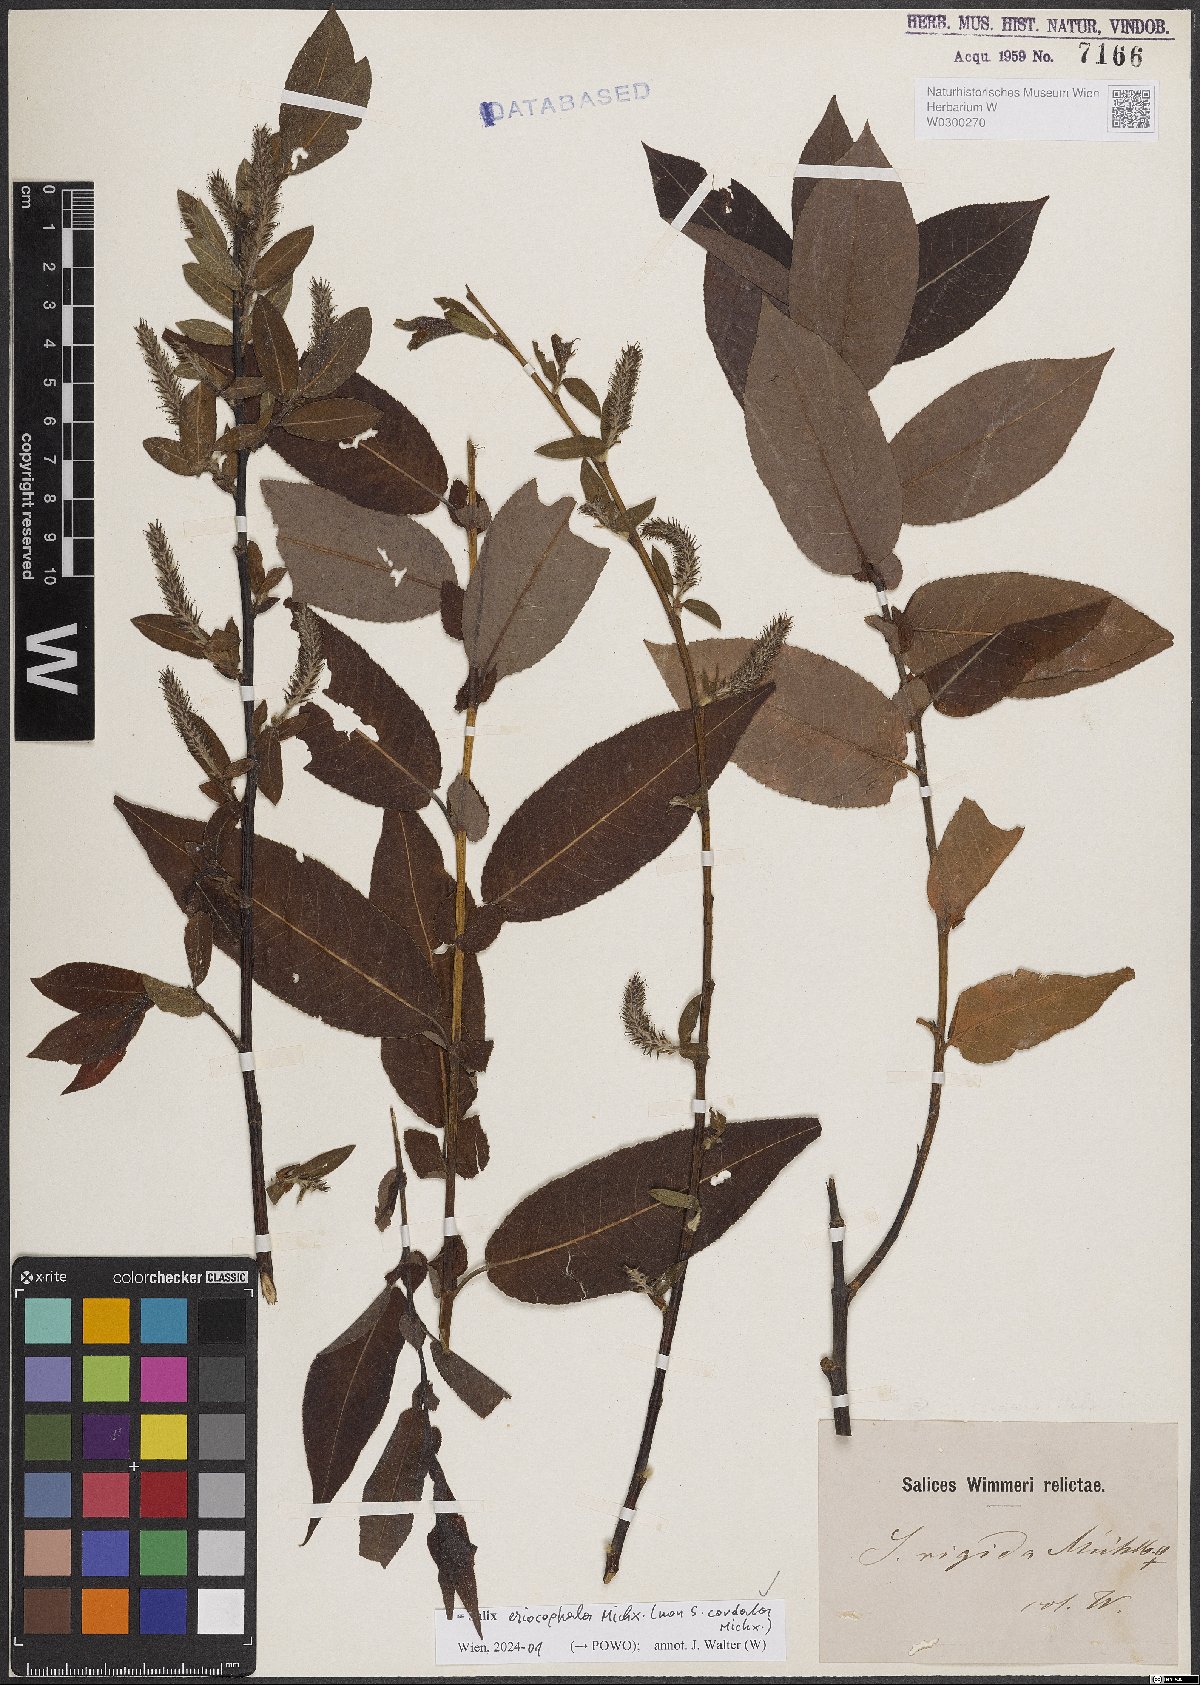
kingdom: Plantae
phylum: Tracheophyta
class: Magnoliopsida
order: Malpighiales
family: Salicaceae
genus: Salix
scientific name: Salix eriocephala
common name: Heart-leaved willow
